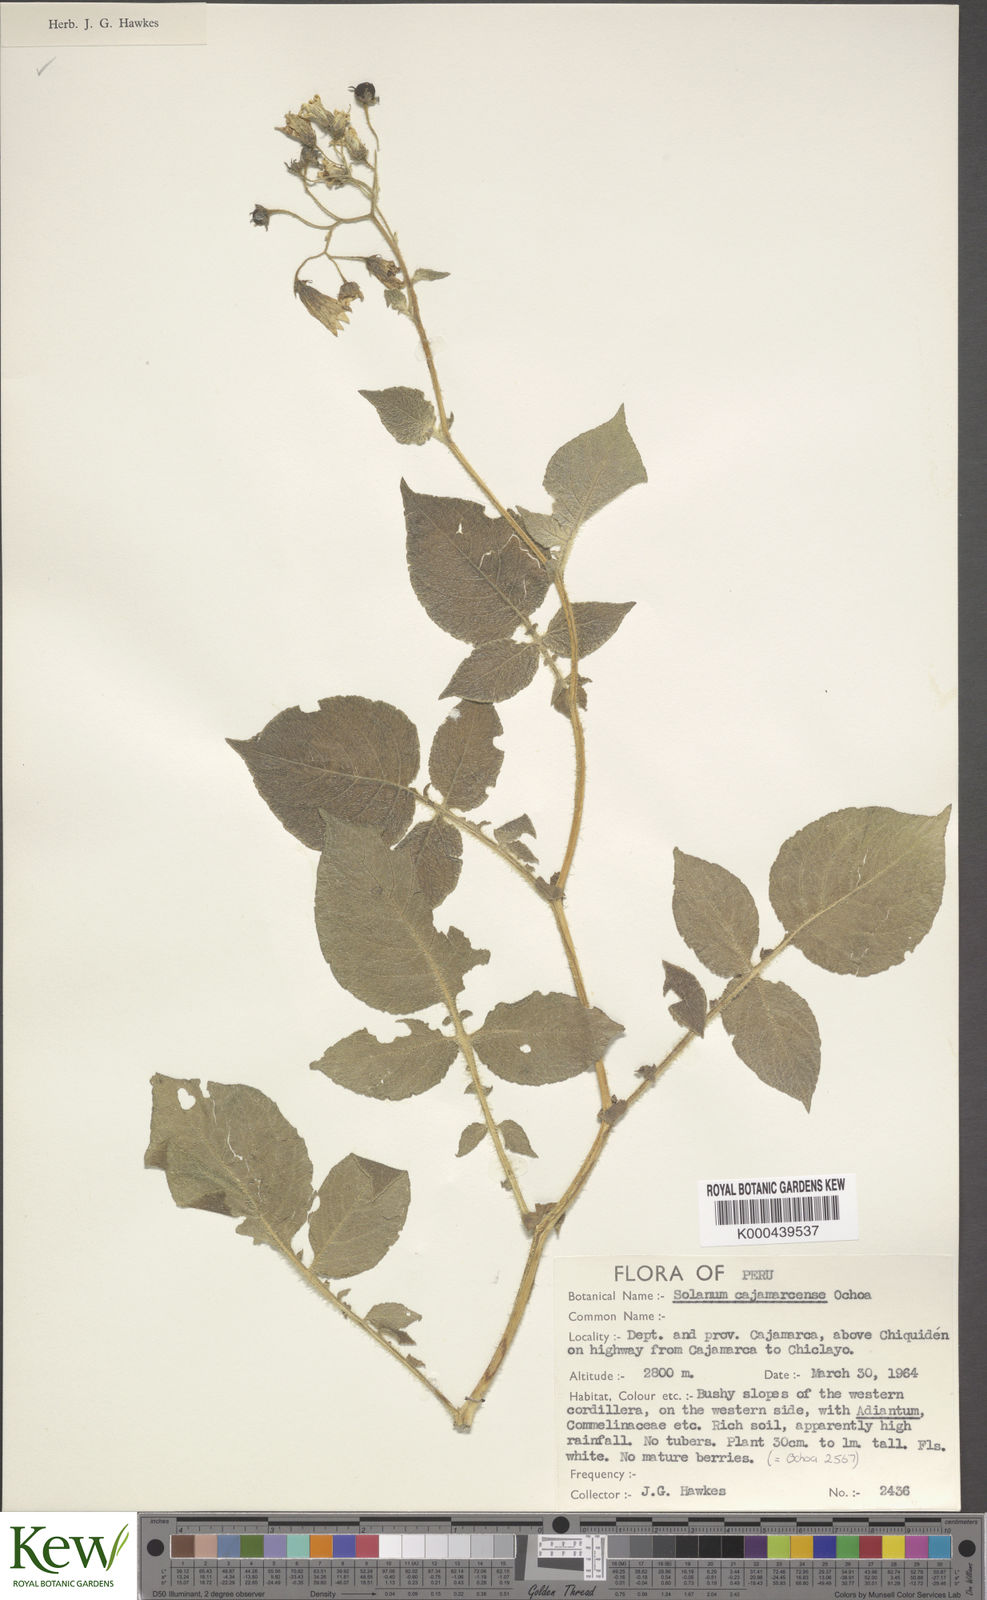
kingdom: Plantae
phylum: Tracheophyta
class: Magnoliopsida
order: Solanales
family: Solanaceae
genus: Solanum
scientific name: Solanum cajamarquense
